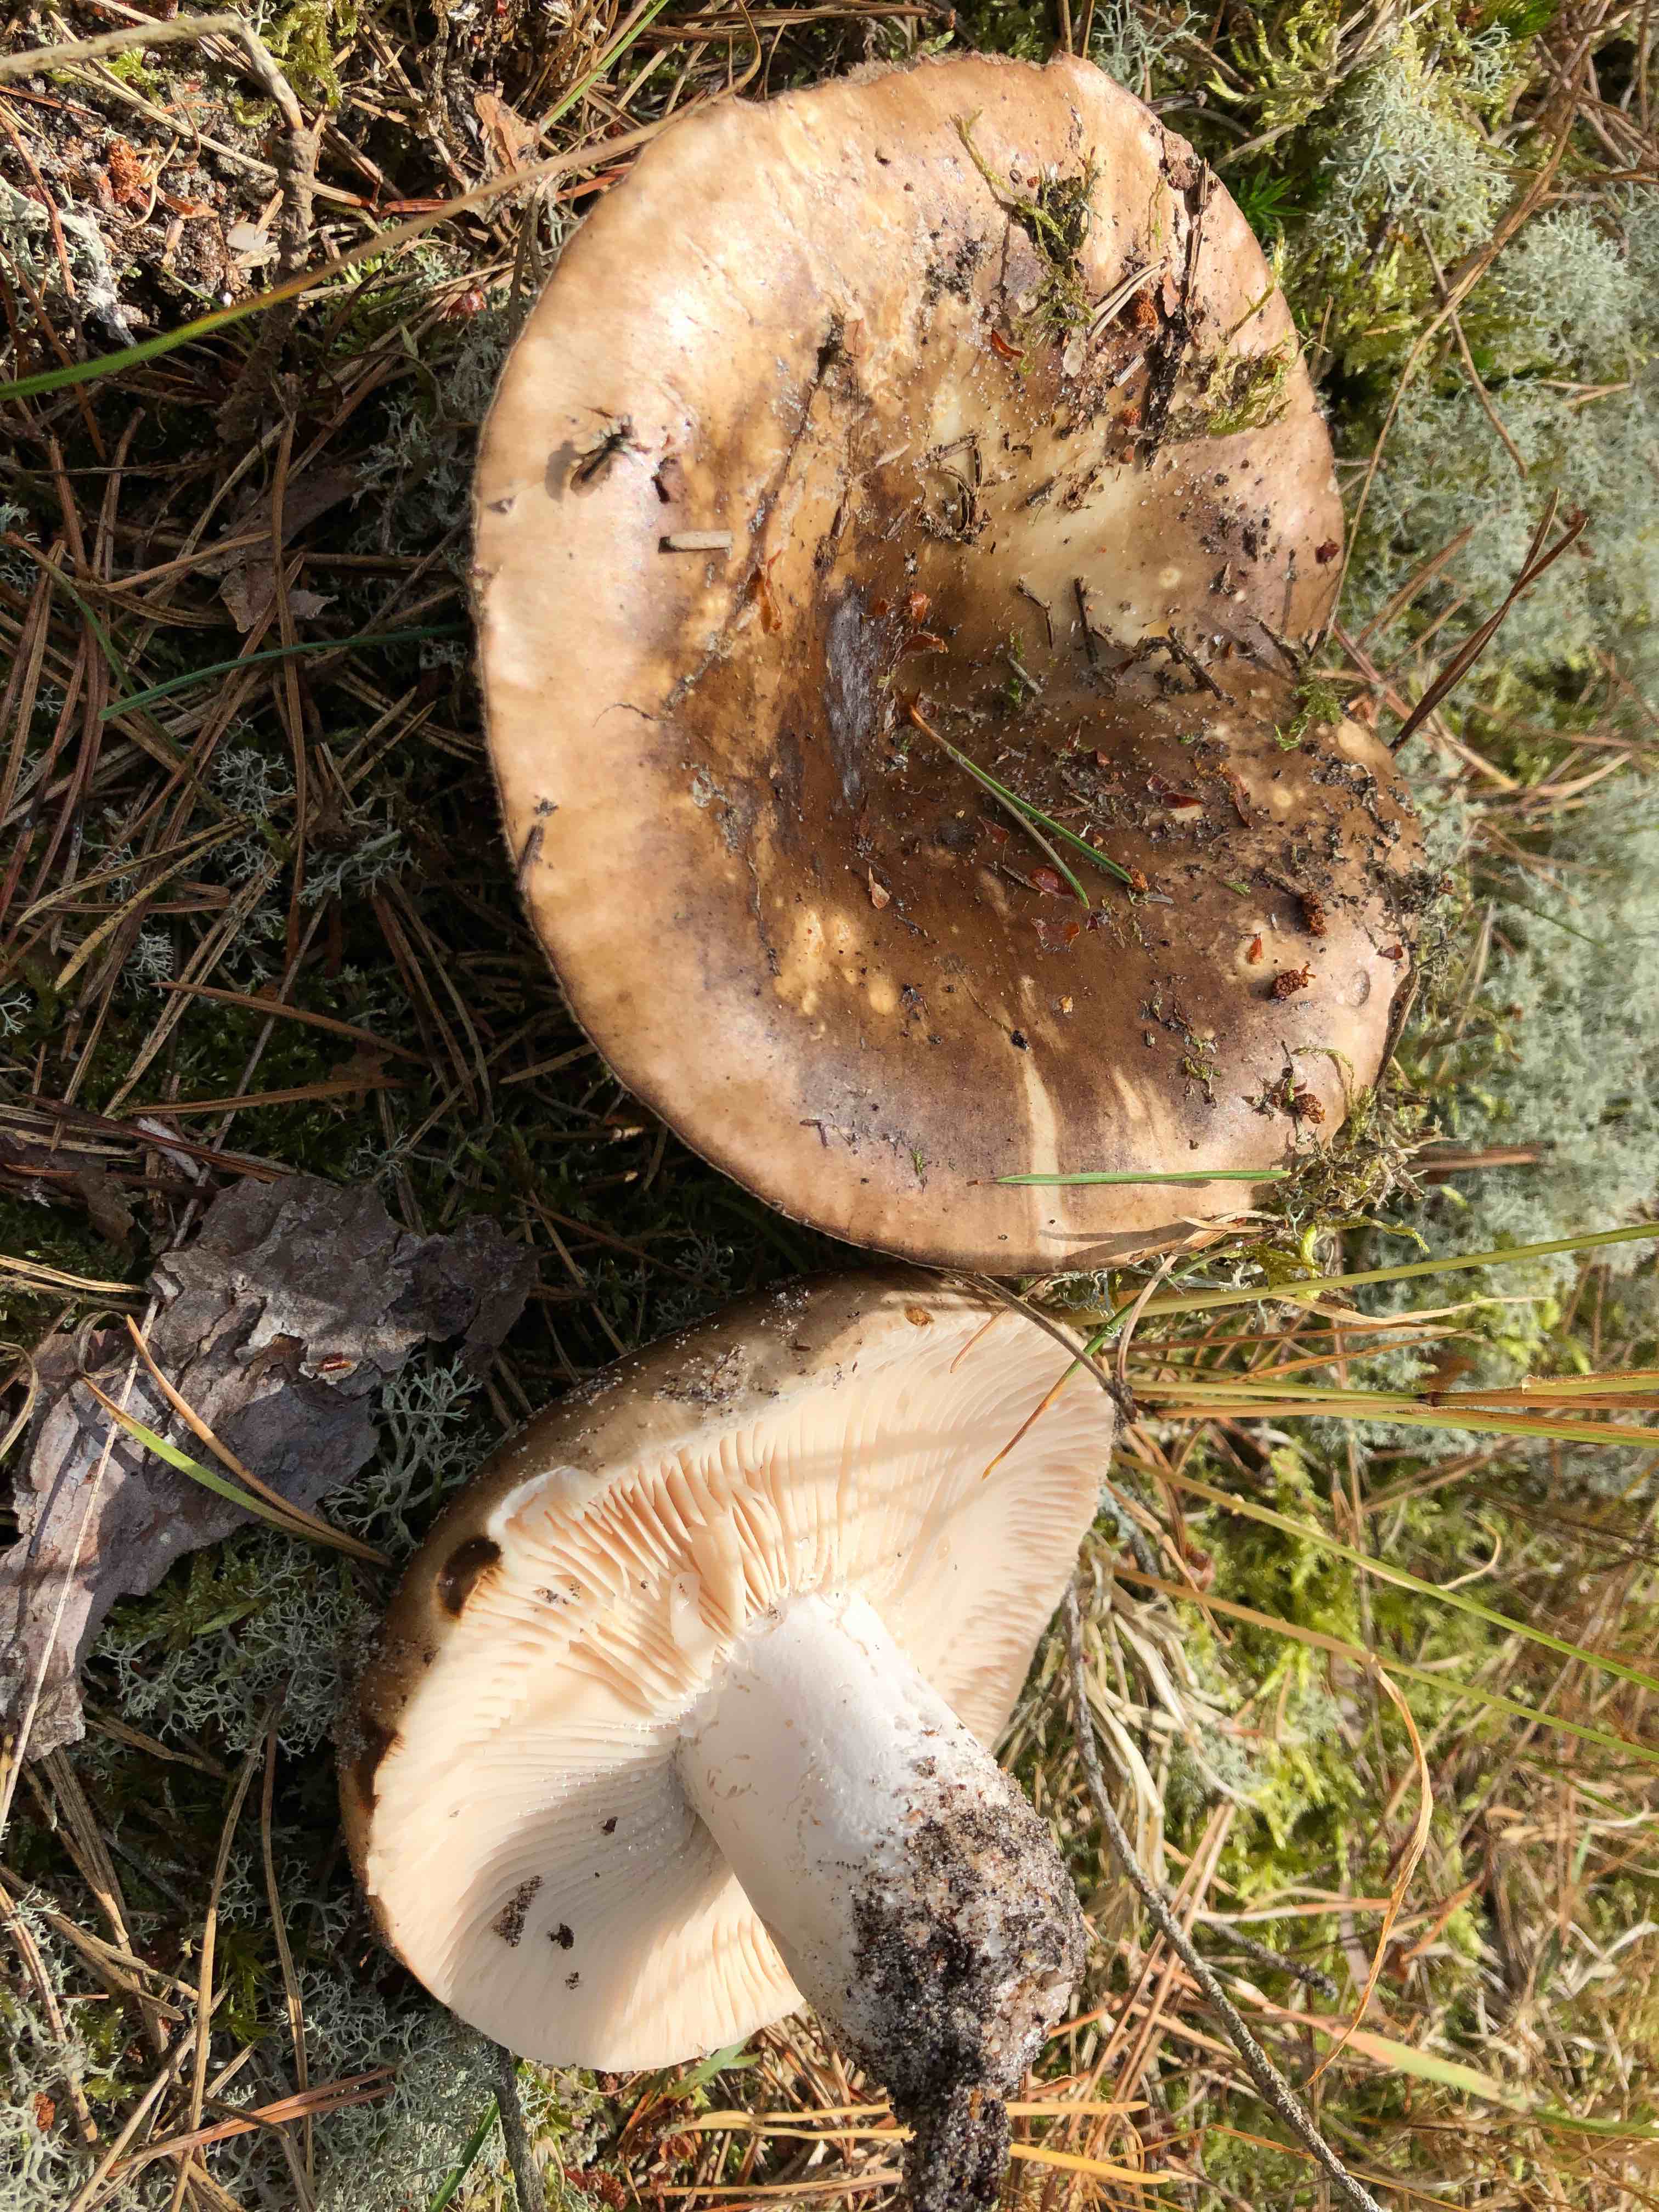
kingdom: Fungi
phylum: Basidiomycota
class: Agaricomycetes
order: Russulales
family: Russulaceae
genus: Russula
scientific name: Russula adusta
